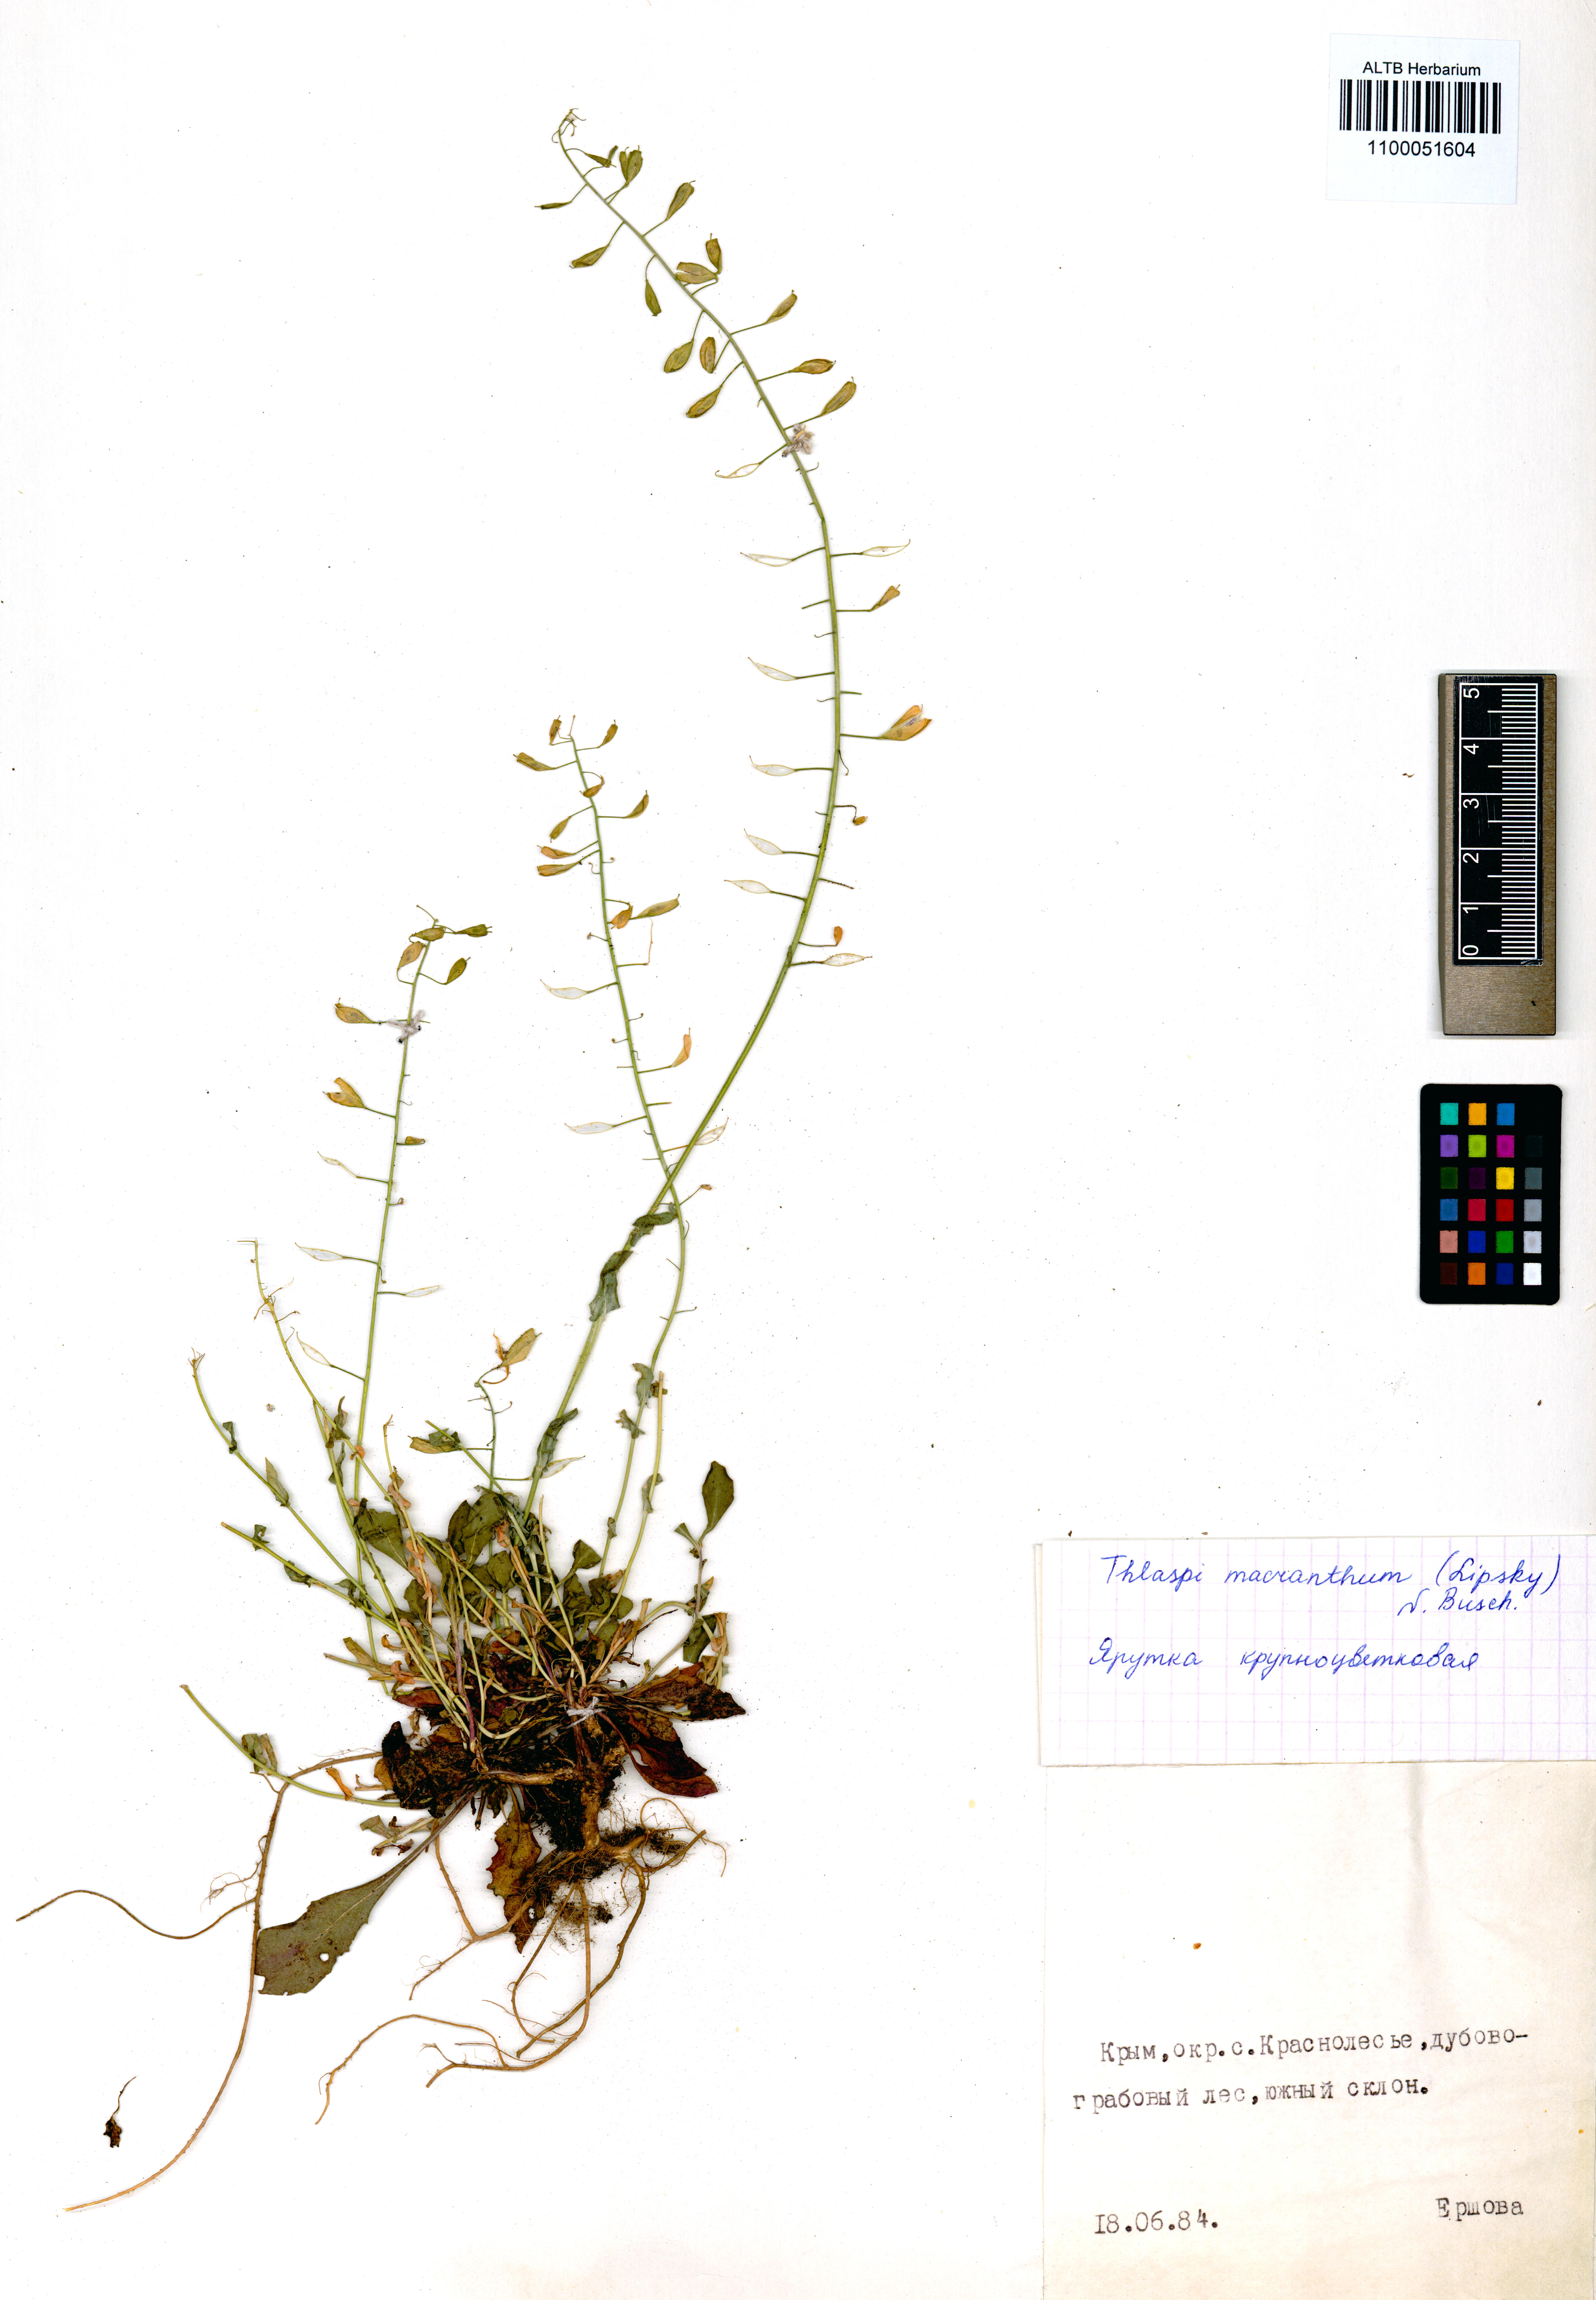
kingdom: Plantae
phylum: Tracheophyta
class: Magnoliopsida
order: Brassicales
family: Brassicaceae
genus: Noccaea
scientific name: Noccaea macrantha
